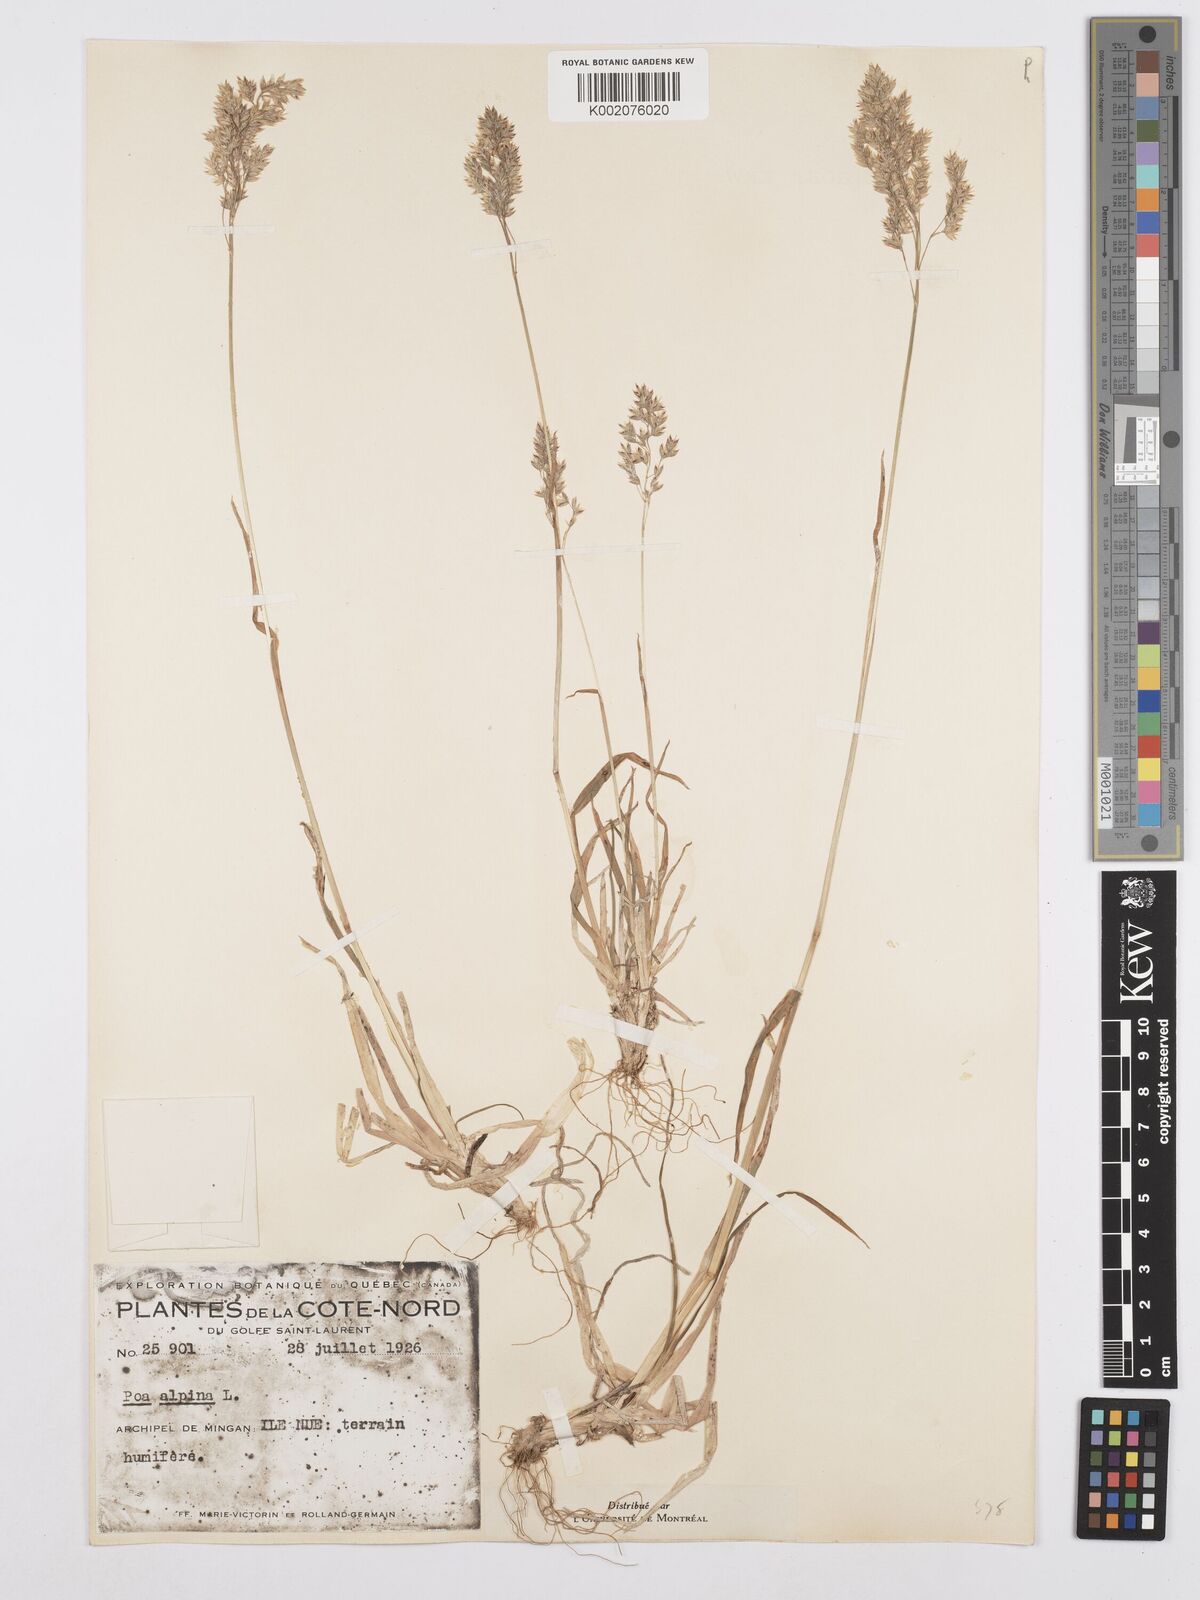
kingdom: Plantae
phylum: Tracheophyta
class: Liliopsida
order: Poales
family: Poaceae
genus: Poa
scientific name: Poa alpina
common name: Alpine bluegrass
